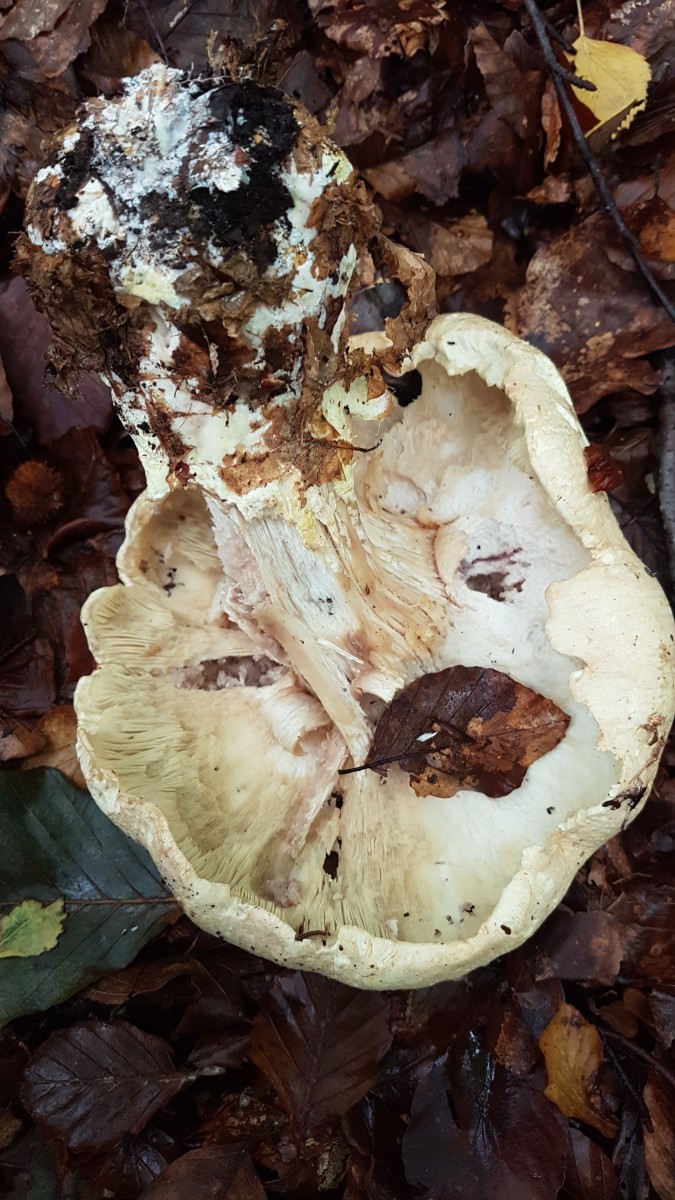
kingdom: Fungi
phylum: Basidiomycota
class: Agaricomycetes
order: Agaricales
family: Tricholomataceae
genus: Leucopaxillus
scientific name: Leucopaxillus tricolor
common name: trefarvet tragtridderhat
